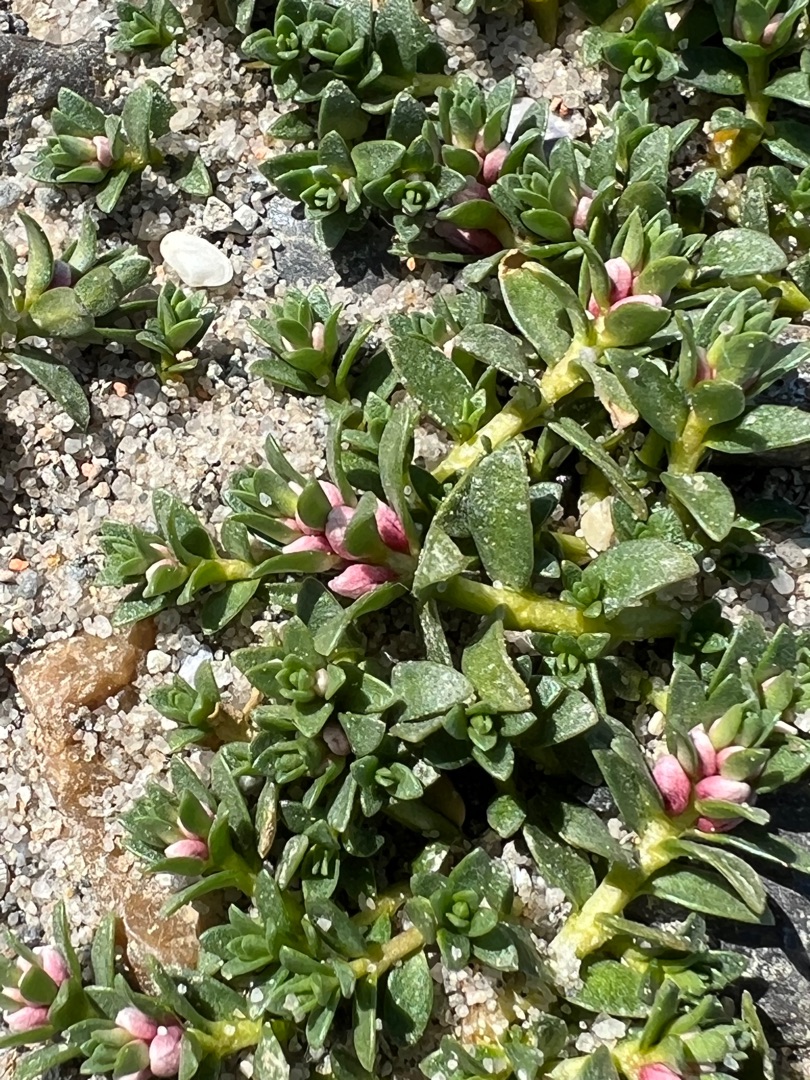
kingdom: Plantae
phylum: Tracheophyta
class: Magnoliopsida
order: Ericales
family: Primulaceae
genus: Lysimachia
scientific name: Lysimachia maritima
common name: Sandkryb
